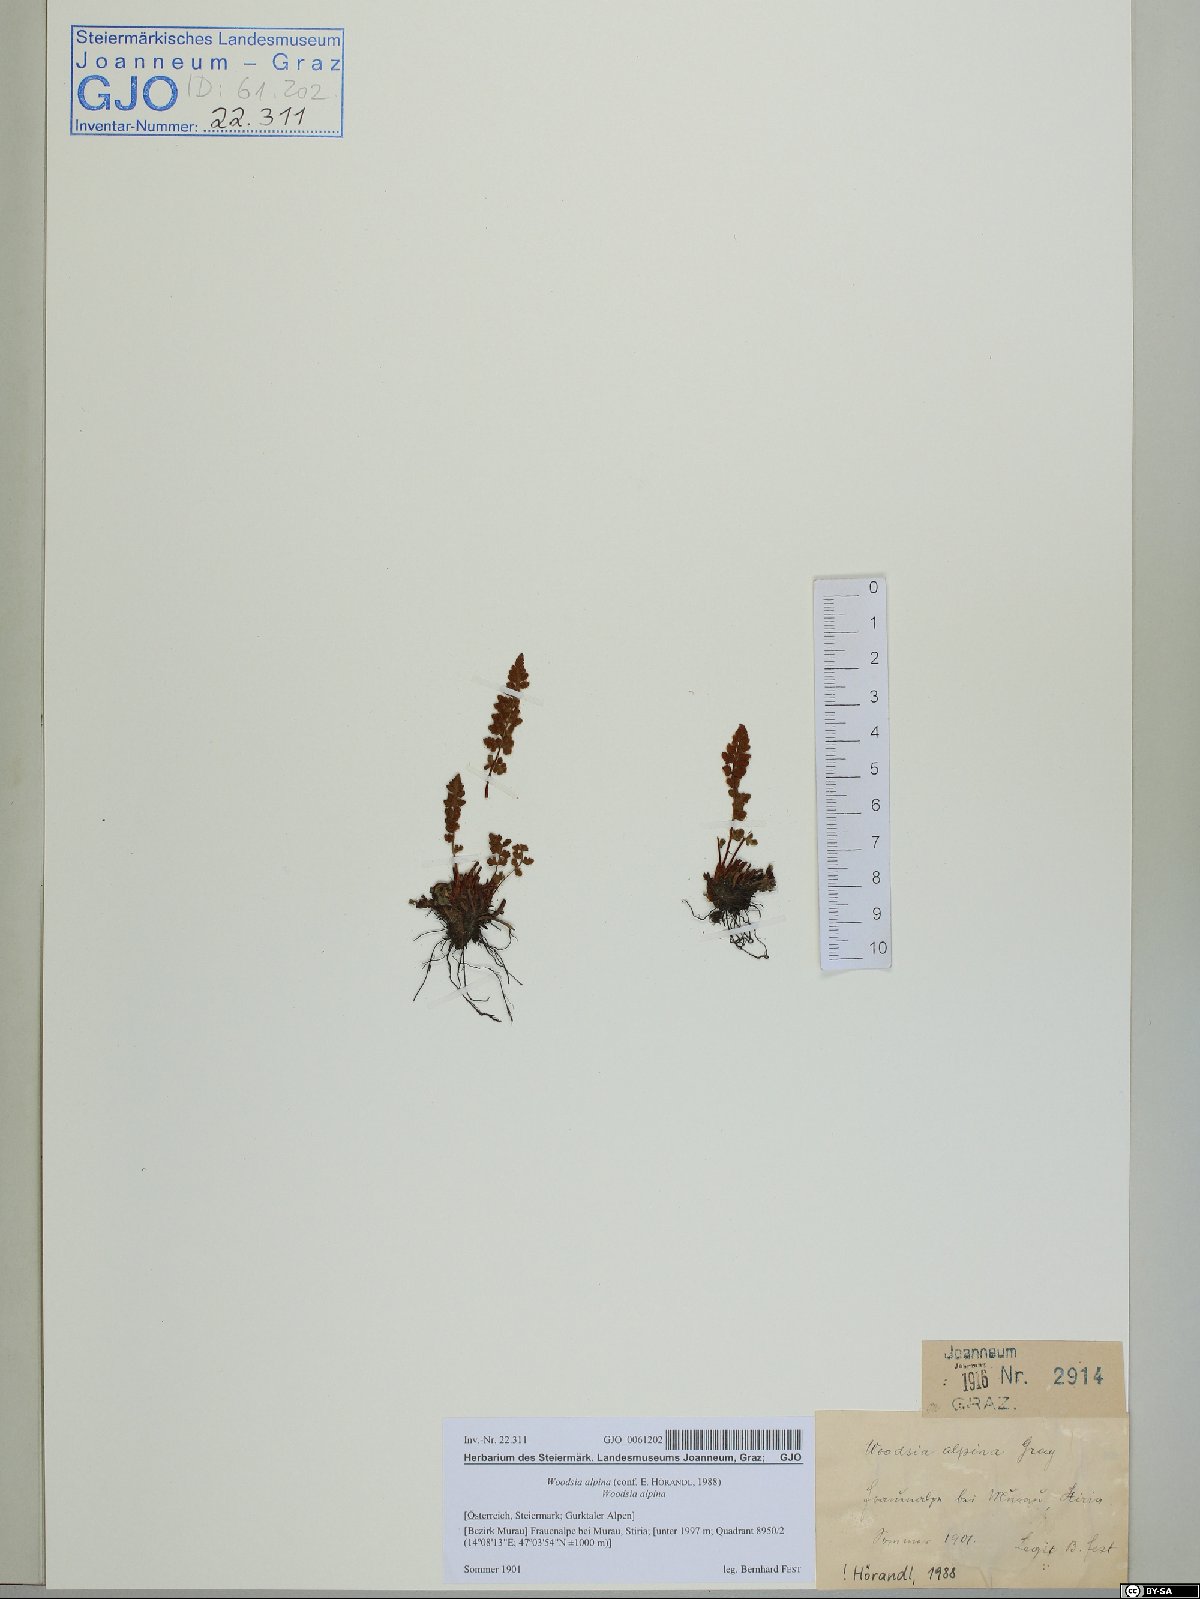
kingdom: Plantae
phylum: Tracheophyta
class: Polypodiopsida
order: Polypodiales
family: Woodsiaceae
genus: Woodsia
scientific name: Woodsia alpina
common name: Alpine woodsia
